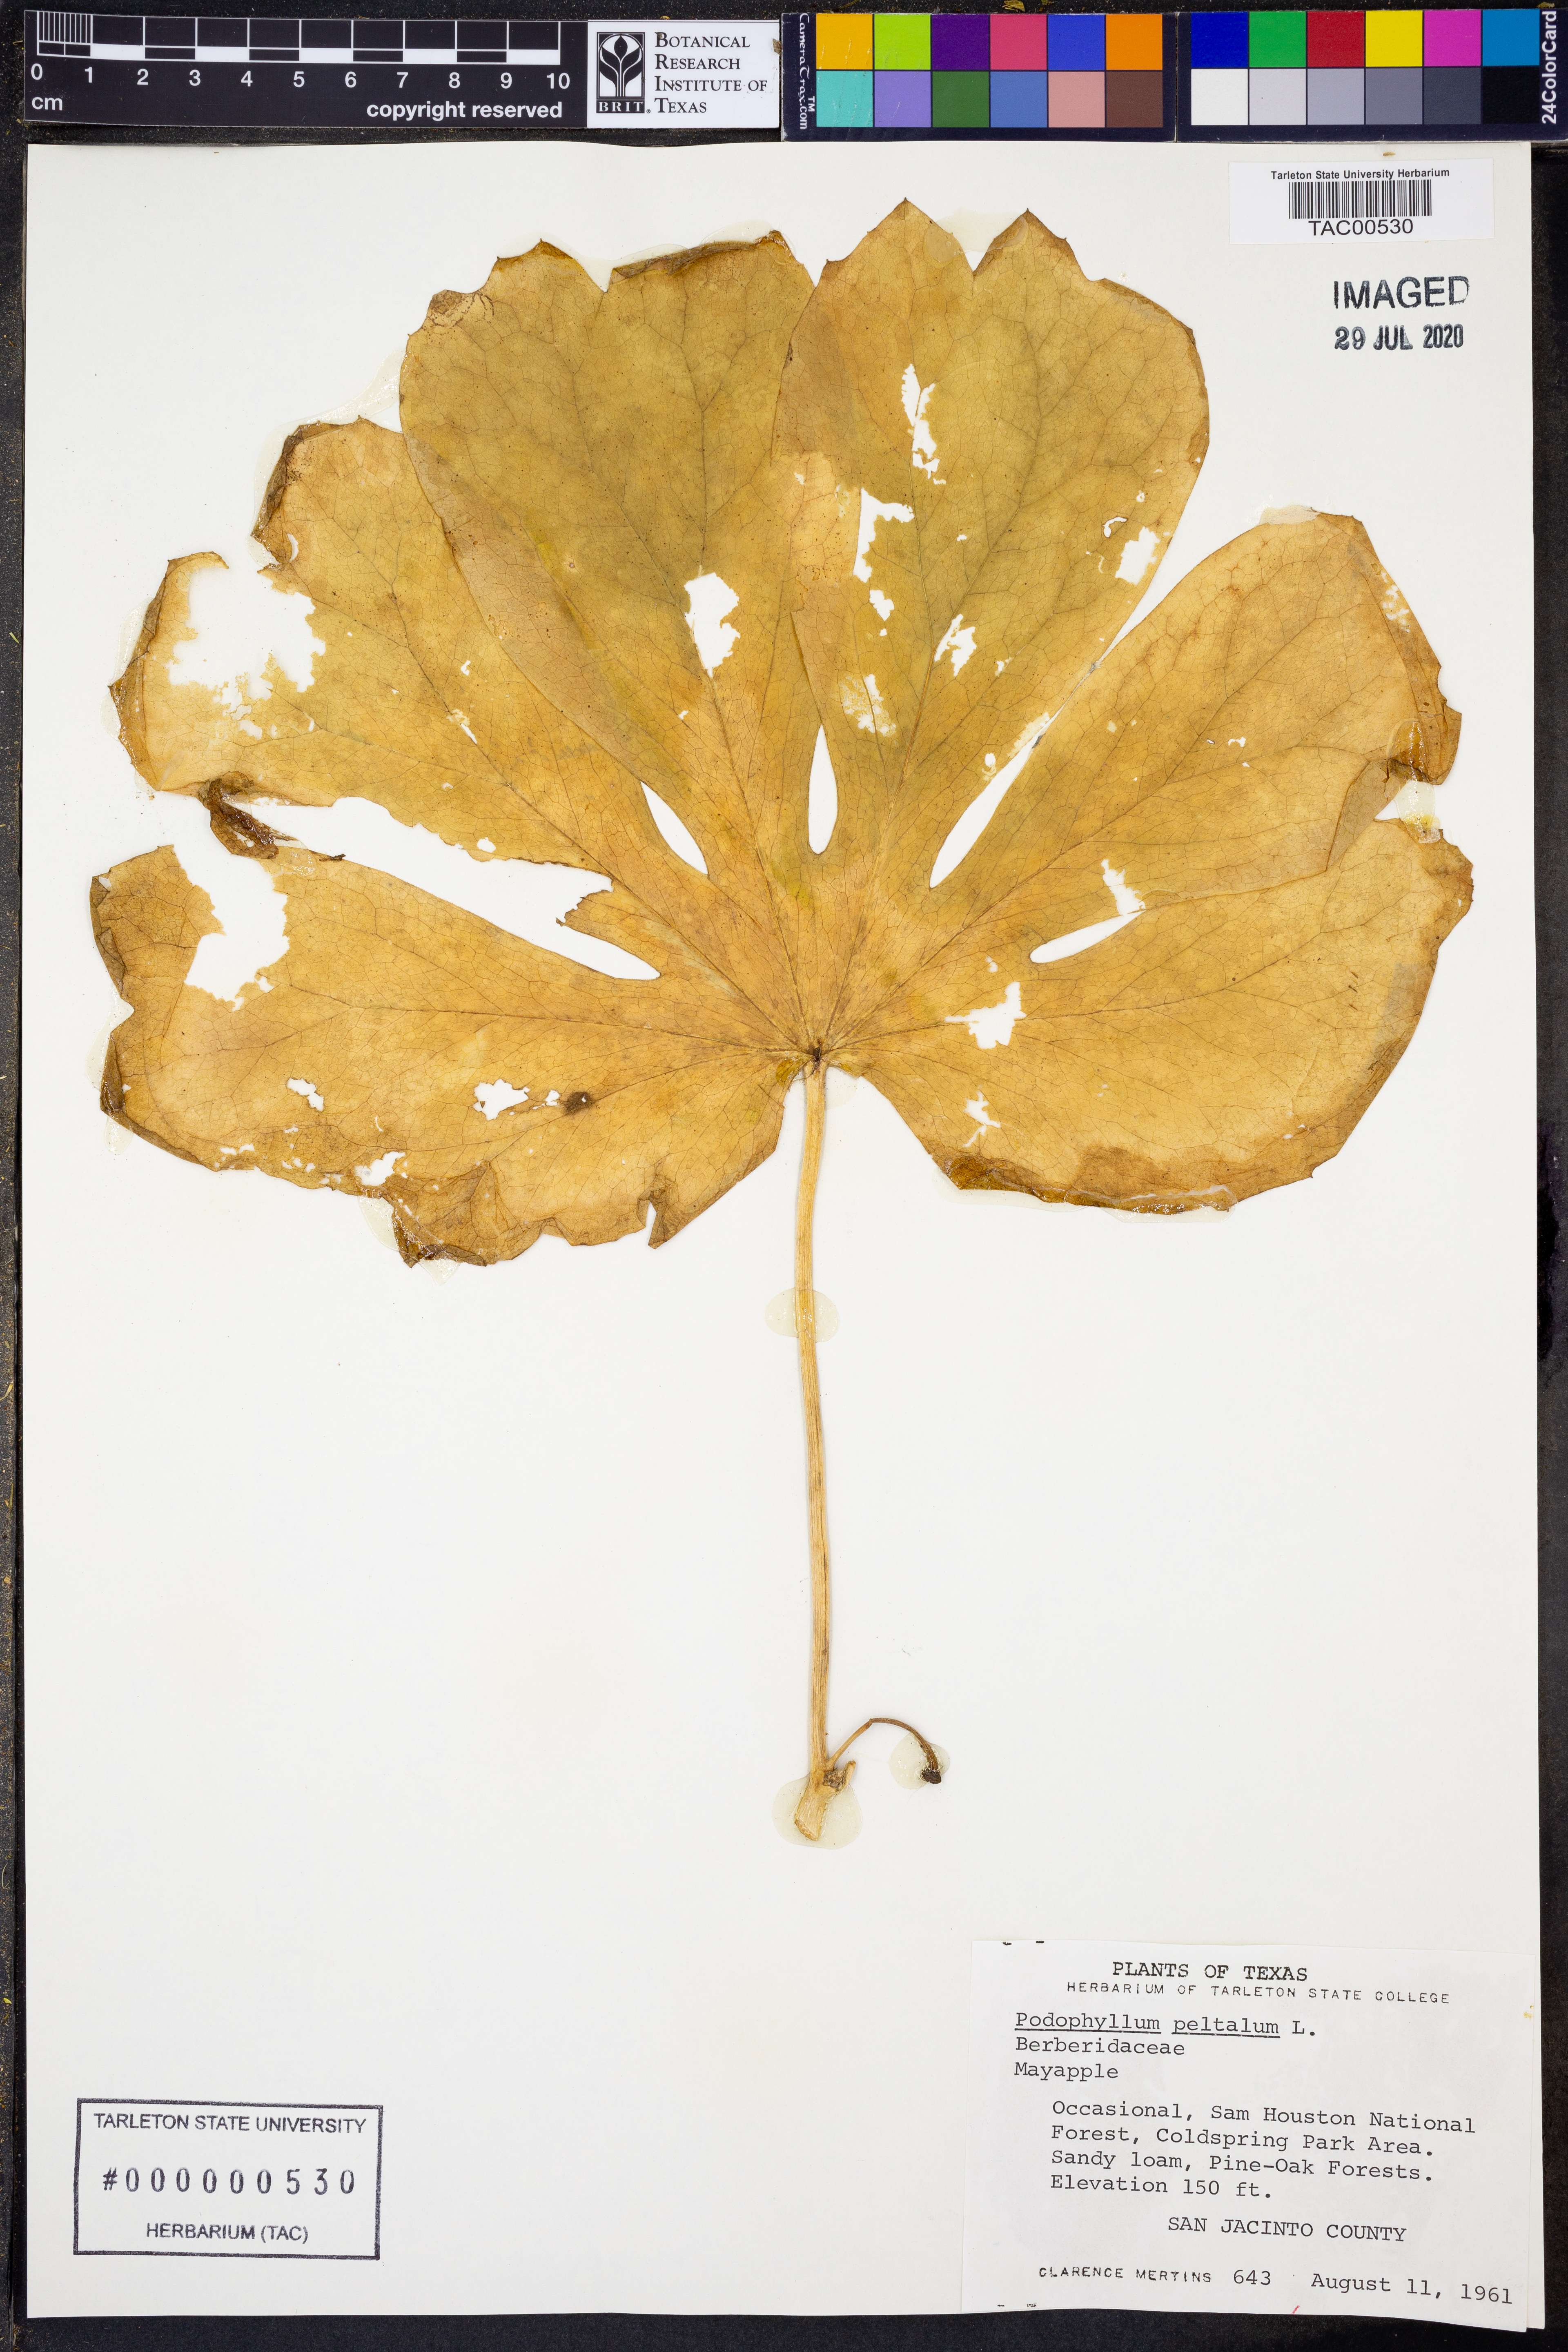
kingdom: Plantae
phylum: Tracheophyta
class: Magnoliopsida
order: Ranunculales
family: Berberidaceae
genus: Podophyllum
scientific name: Podophyllum peltatum
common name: Wild mandrake
